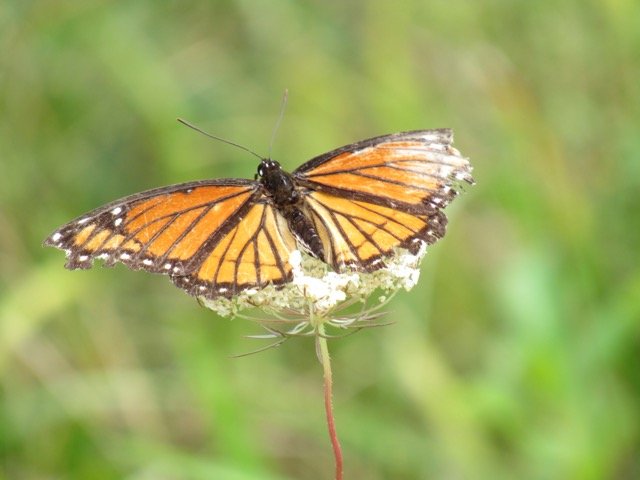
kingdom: Animalia
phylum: Arthropoda
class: Insecta
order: Lepidoptera
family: Nymphalidae
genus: Limenitis
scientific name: Limenitis archippus
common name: Viceroy
